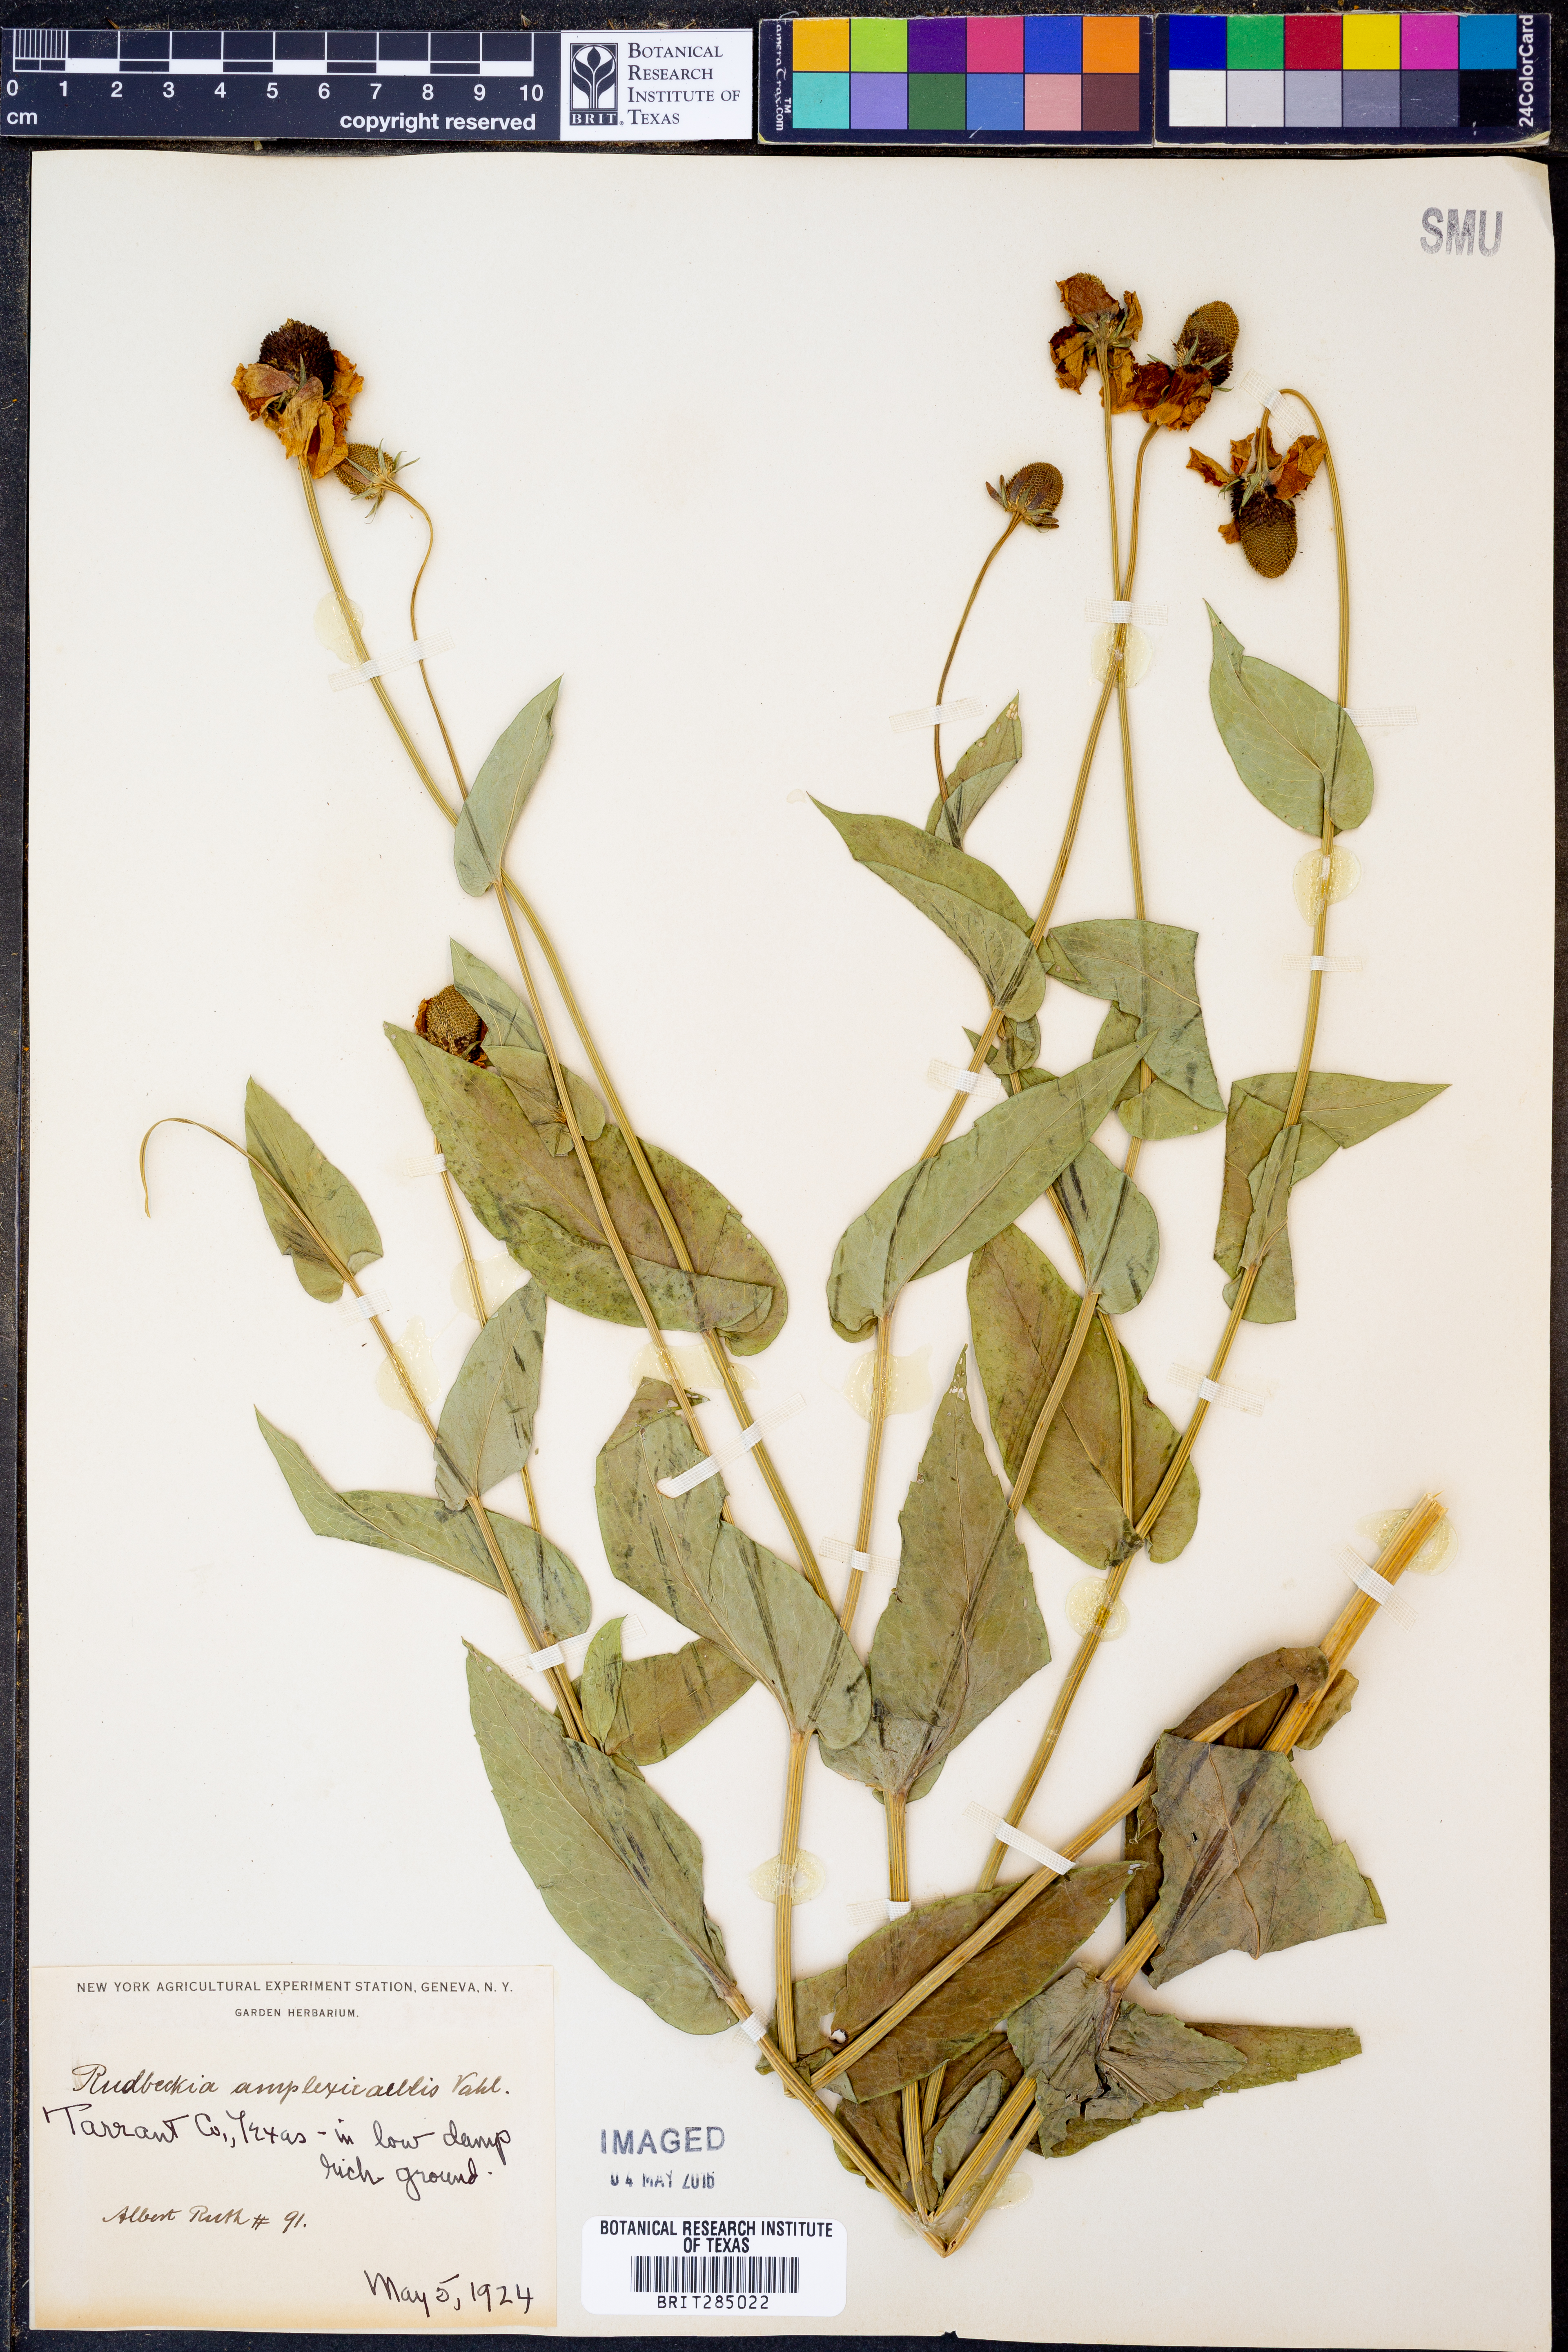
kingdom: Plantae
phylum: Tracheophyta
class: Magnoliopsida
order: Asterales
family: Asteraceae
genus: Rudbeckia
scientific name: Rudbeckia amplexicaulis
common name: Clasping-leaf coneflower
